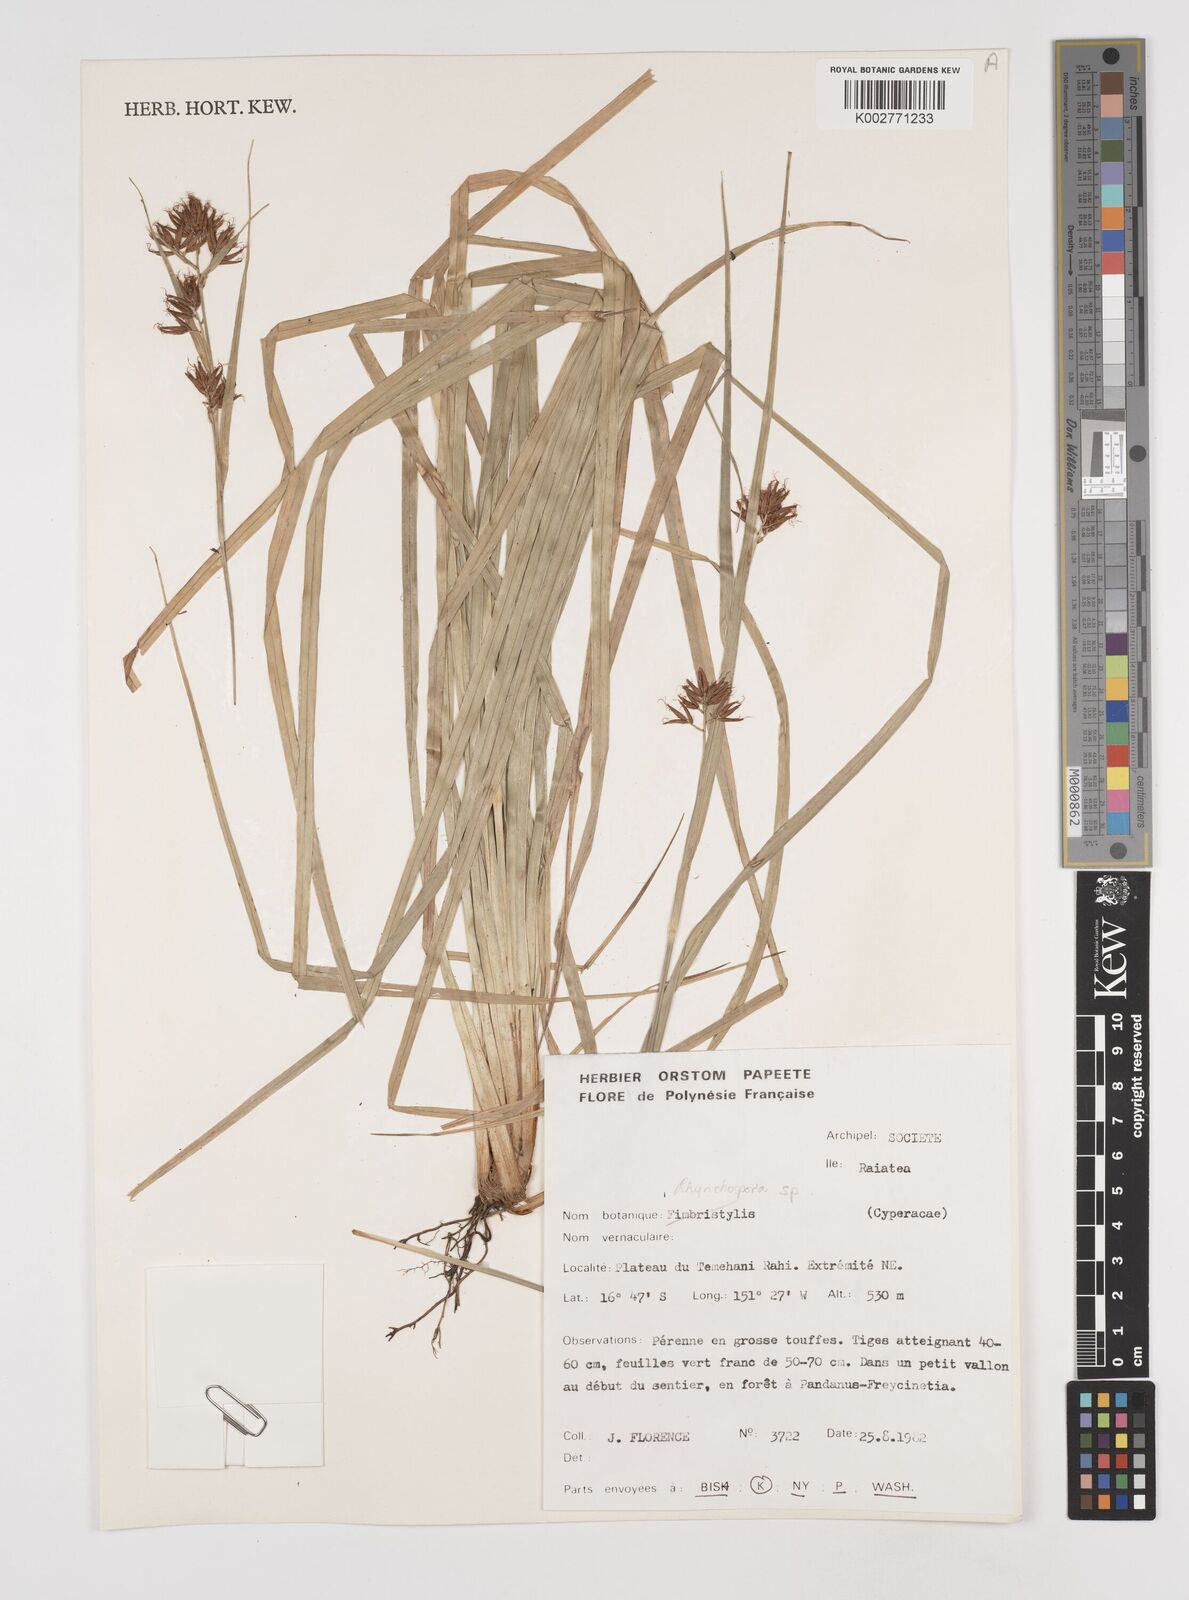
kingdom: Plantae
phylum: Tracheophyta
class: Liliopsida
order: Poales
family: Cyperaceae
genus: Rhynchospora
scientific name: Rhynchospora
